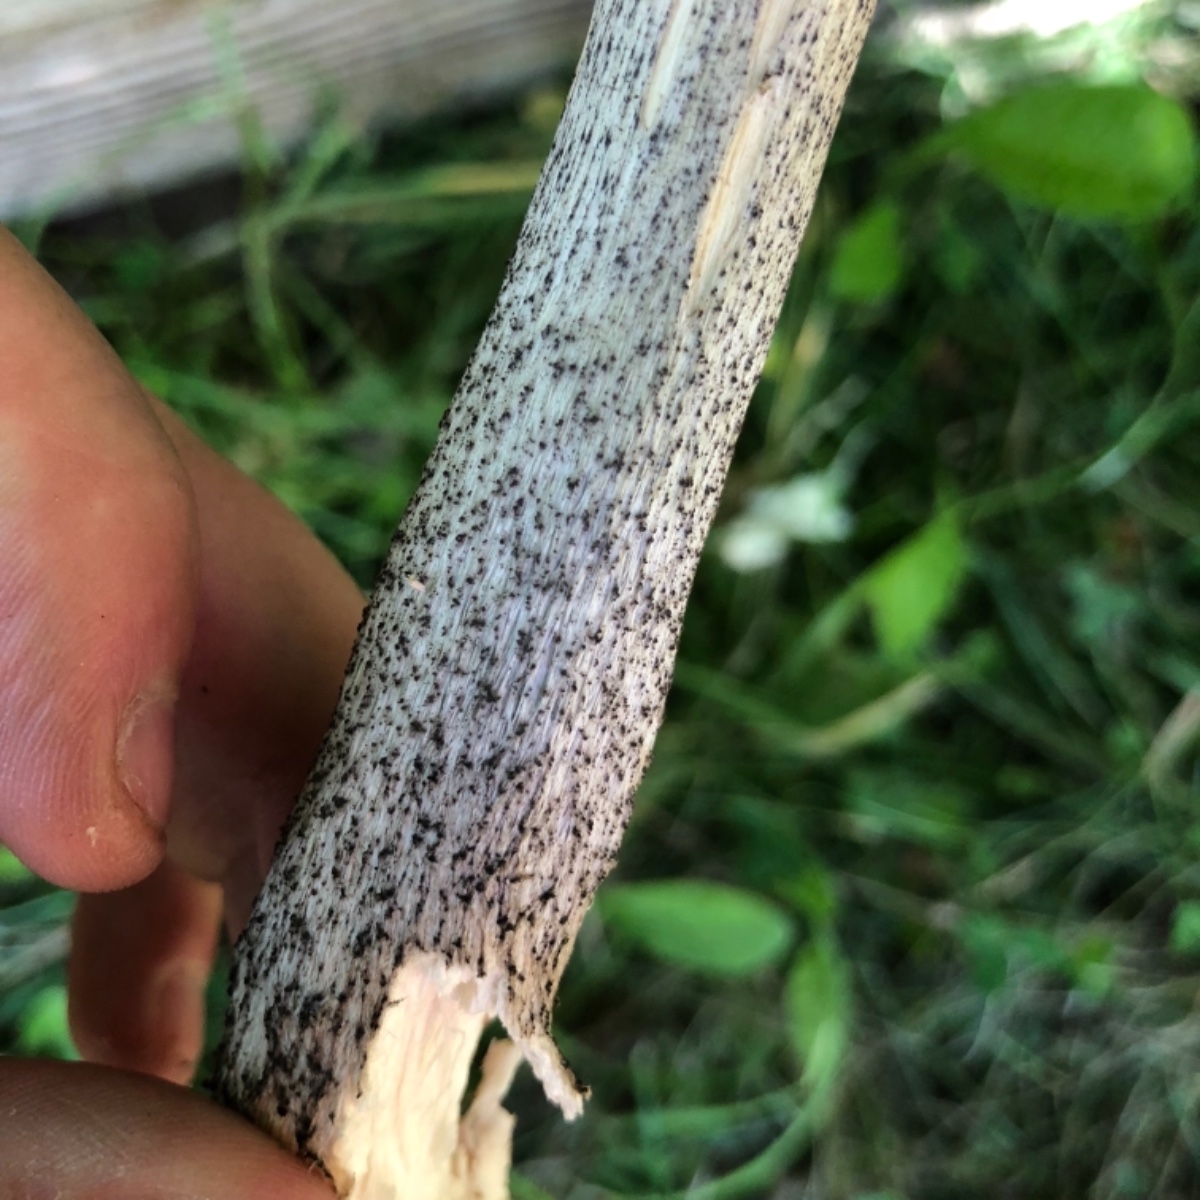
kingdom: Fungi
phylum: Basidiomycota
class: Agaricomycetes
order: Boletales
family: Boletaceae
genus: Leccinum
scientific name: Leccinum scabrum
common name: brun skælrørhat
